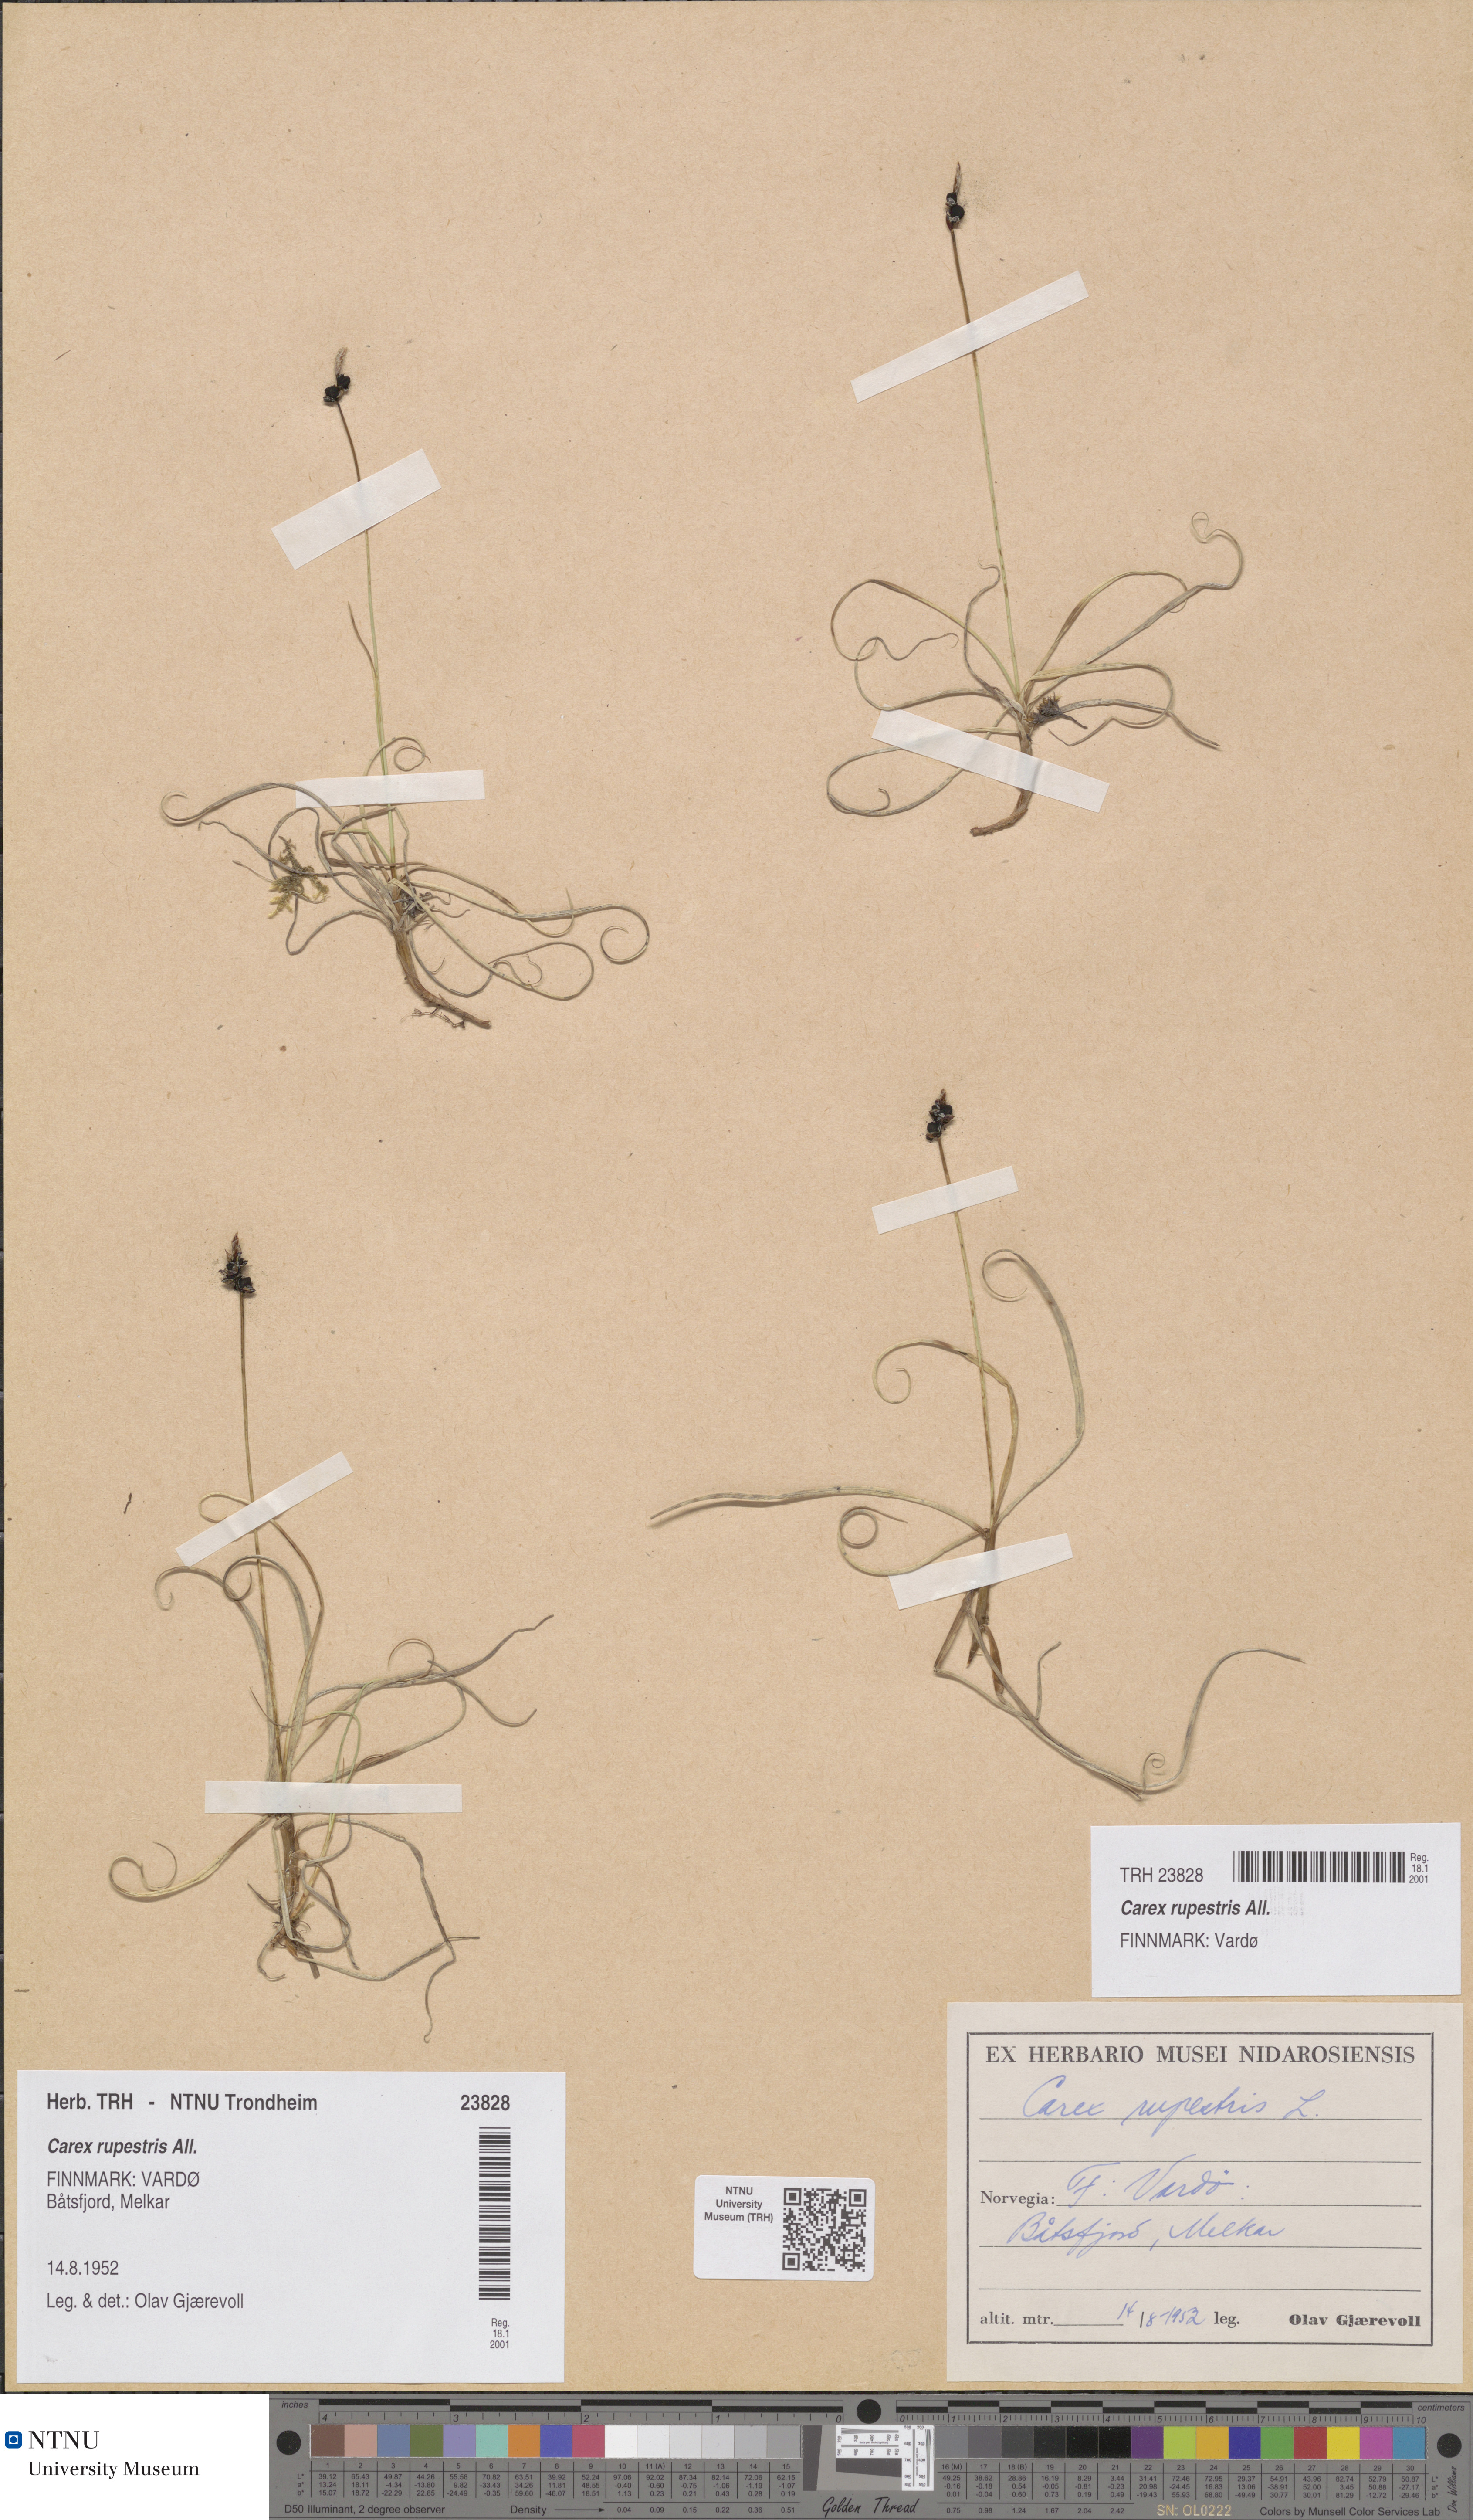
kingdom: Plantae
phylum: Tracheophyta
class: Liliopsida
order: Poales
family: Cyperaceae
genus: Carex
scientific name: Carex rupestris
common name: Rock sedge
